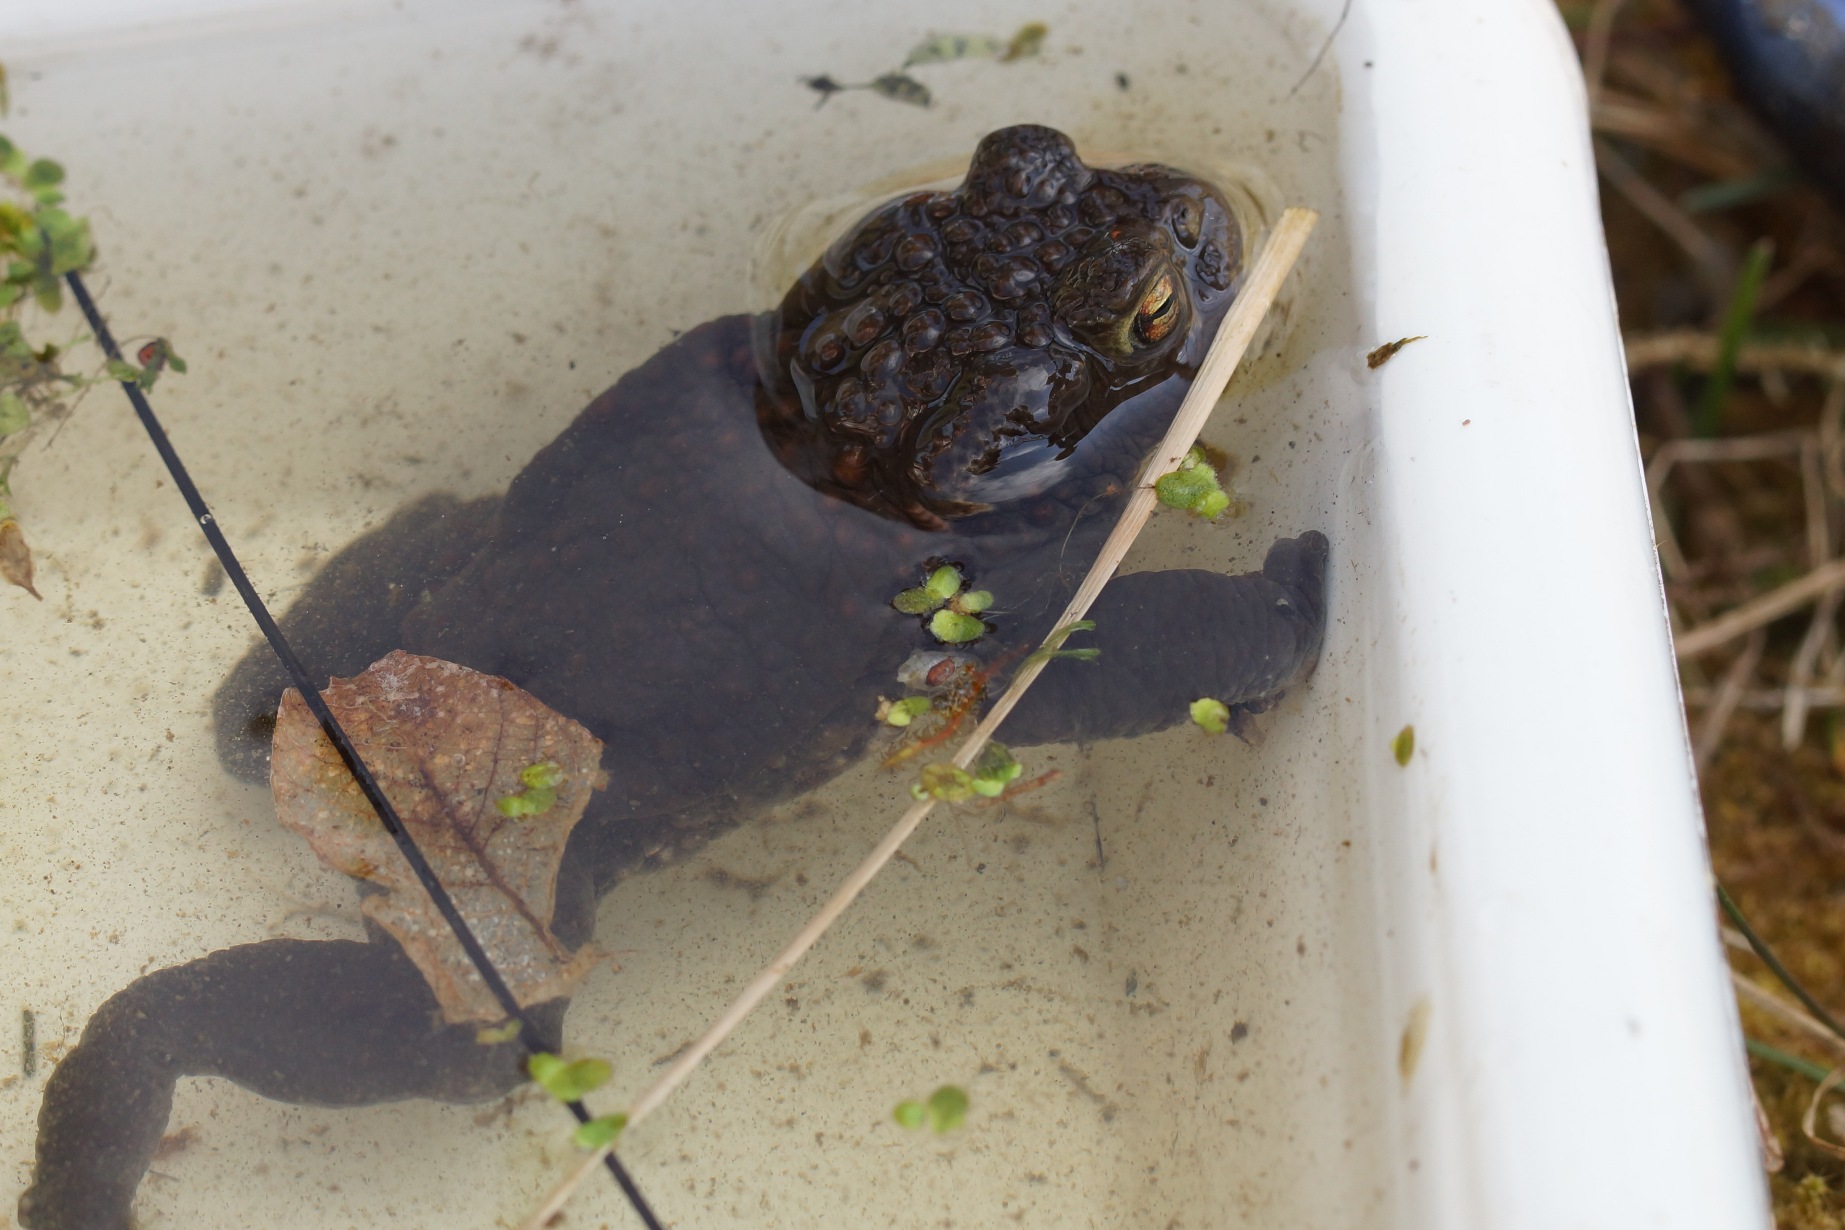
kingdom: Animalia
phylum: Chordata
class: Amphibia
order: Anura
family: Bufonidae
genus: Bufo
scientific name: Bufo bufo
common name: Skrubtudse
